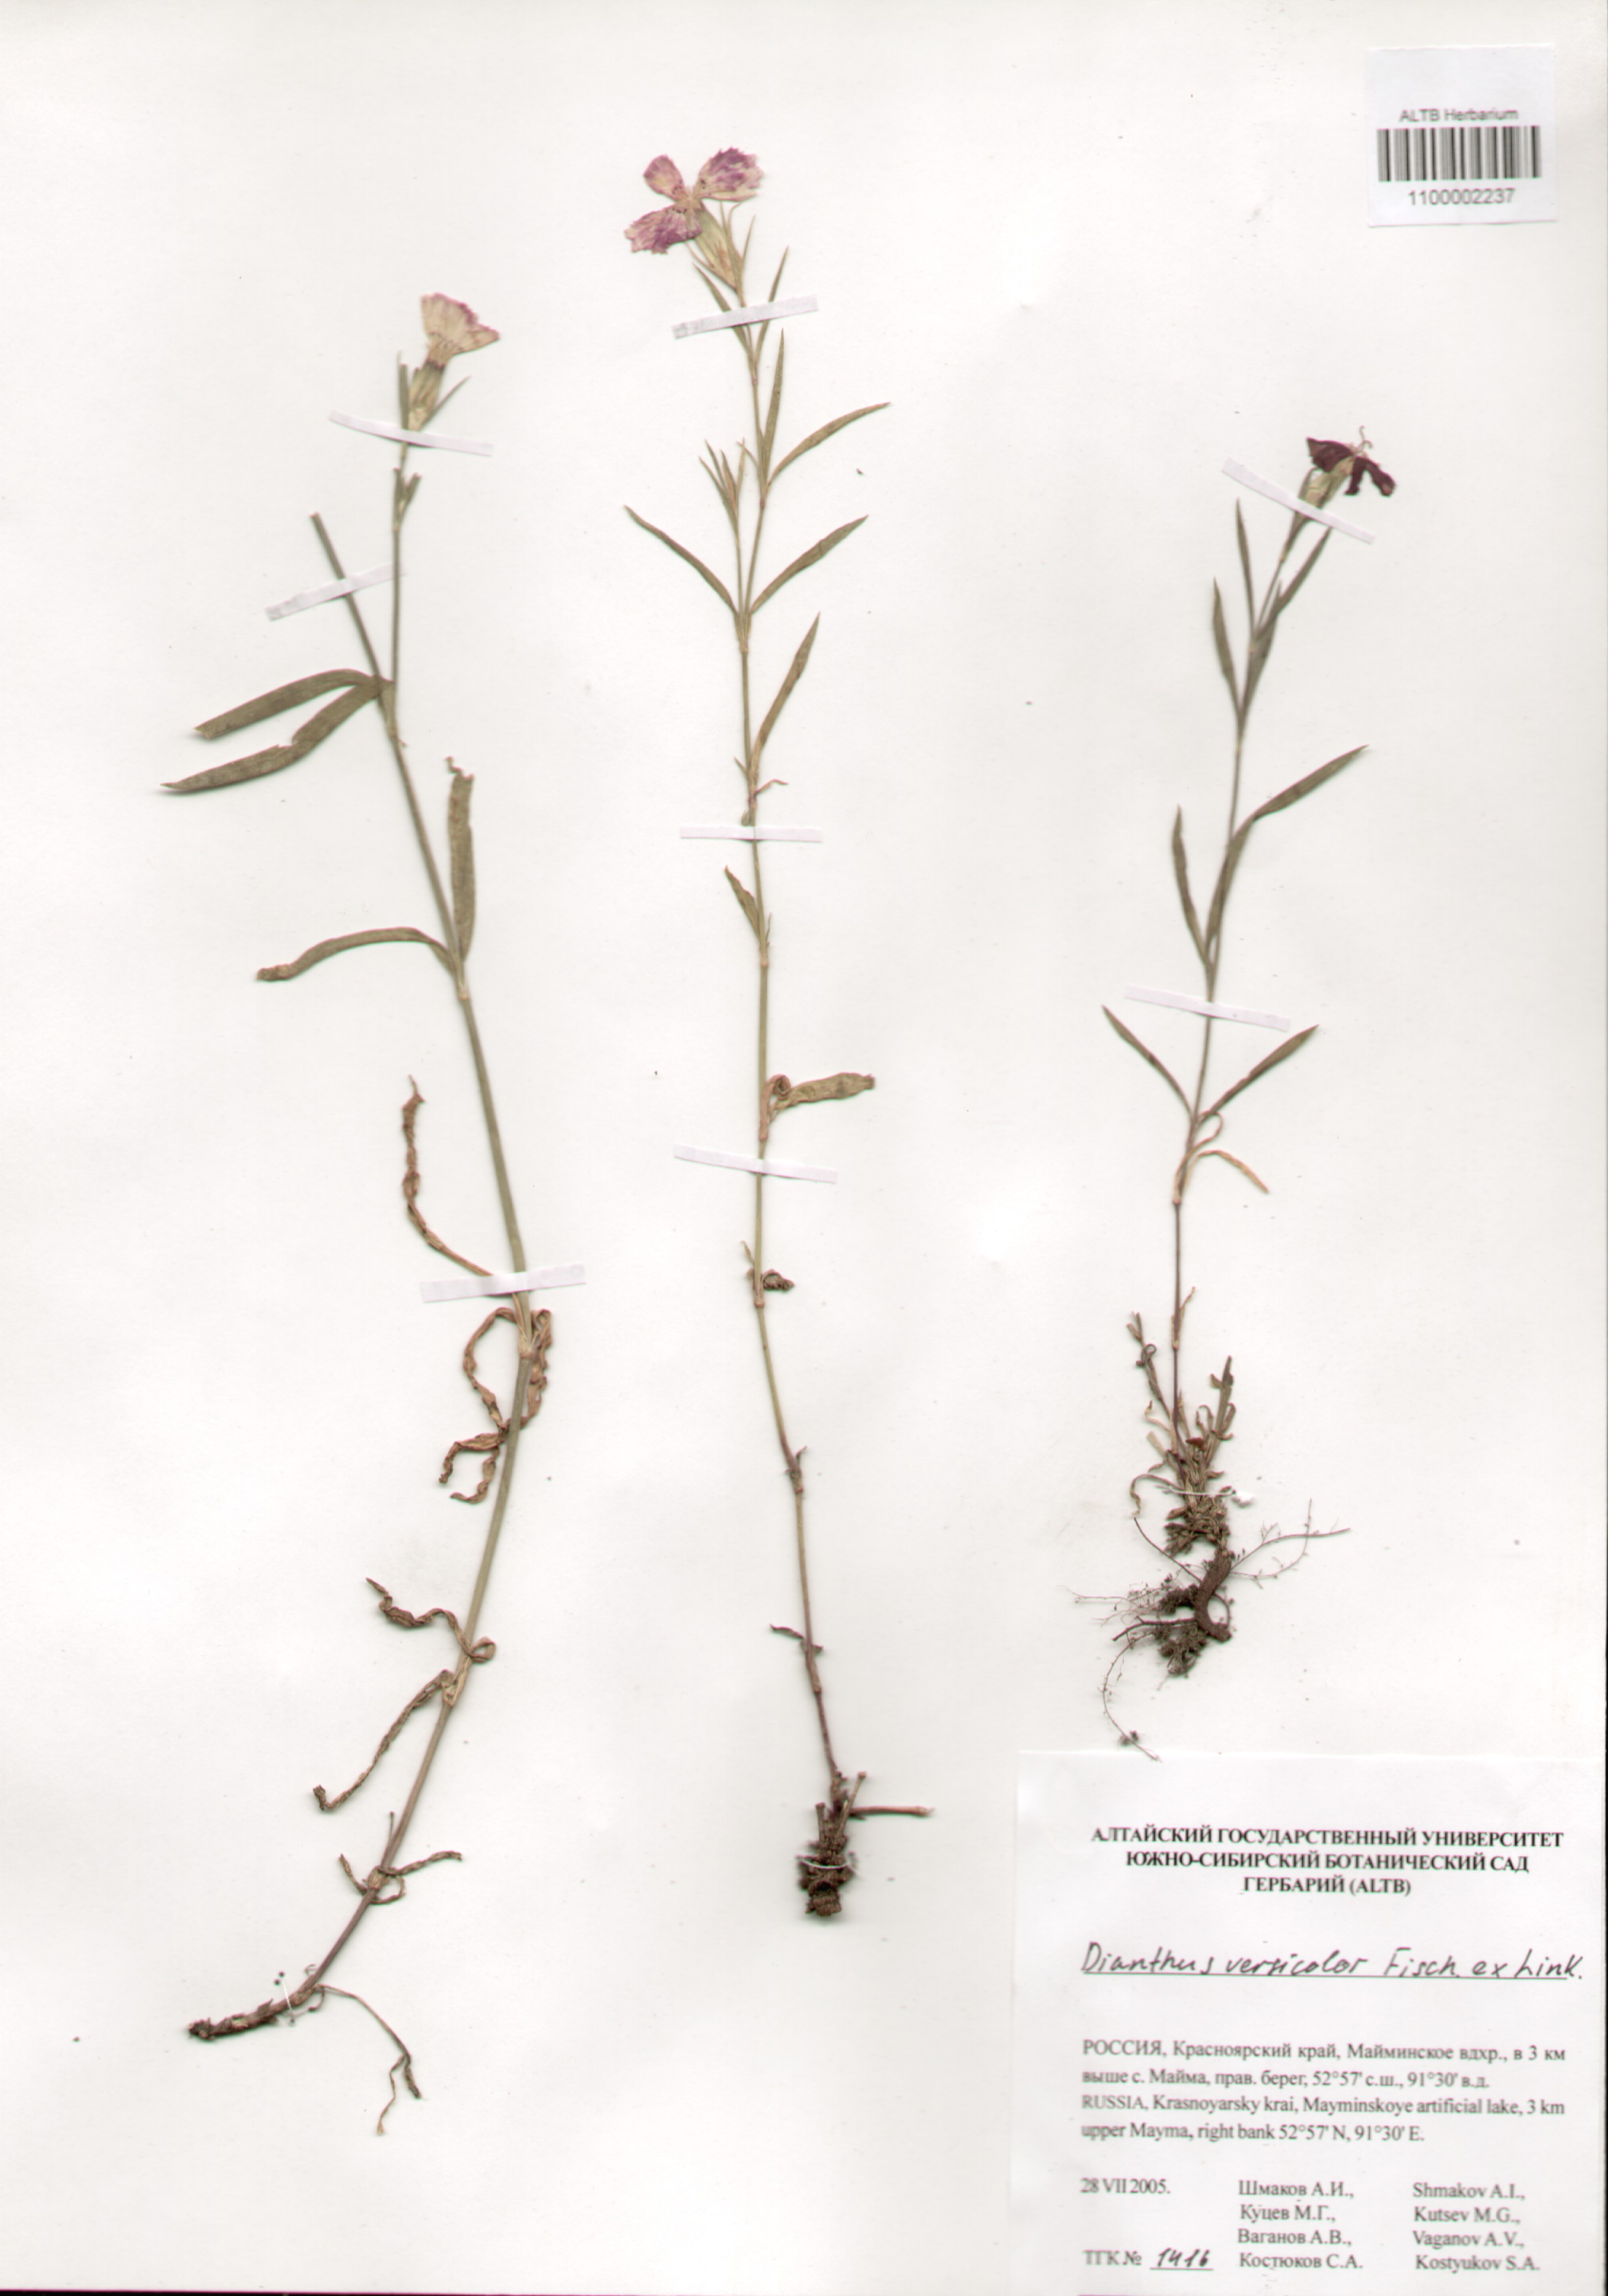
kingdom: Plantae
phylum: Tracheophyta
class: Magnoliopsida
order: Caryophyllales
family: Caryophyllaceae
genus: Dianthus
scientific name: Dianthus chinensis
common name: Rainbow pink
